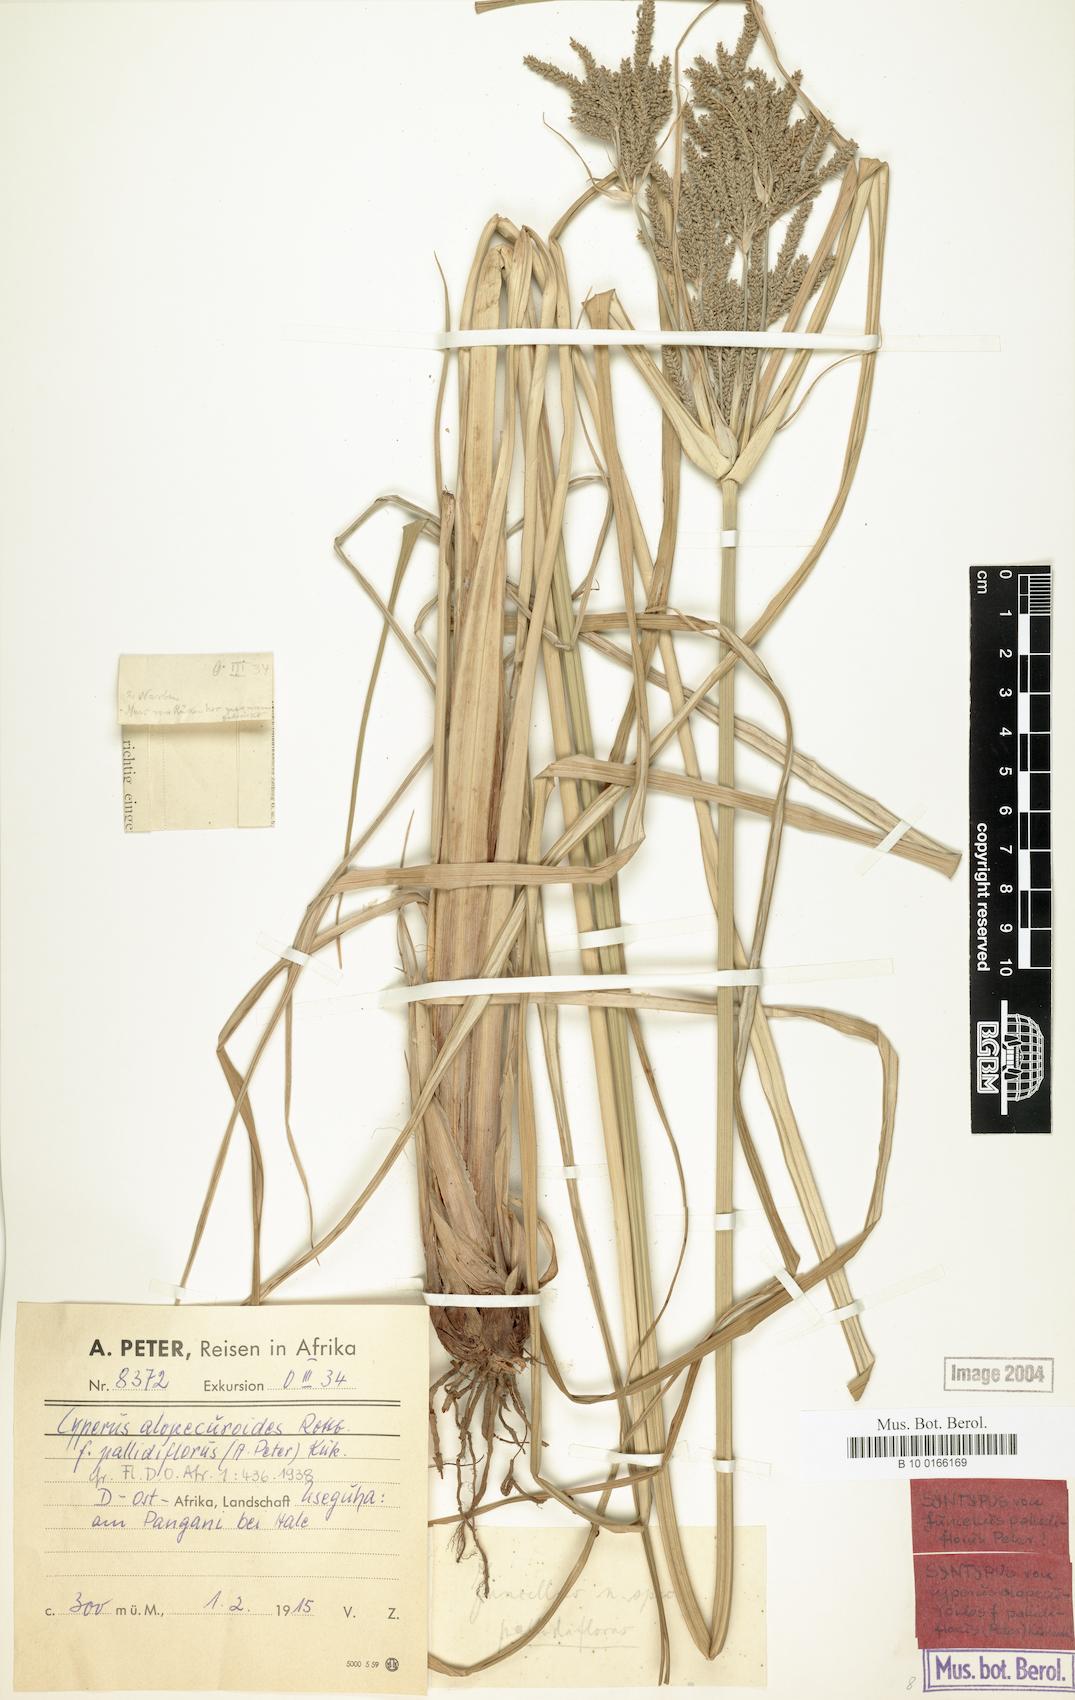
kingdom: Plantae
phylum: Tracheophyta
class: Liliopsida
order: Poales
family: Cyperaceae
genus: Cyperus
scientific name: Cyperus alopecuroides
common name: Foxtail flatsedge
